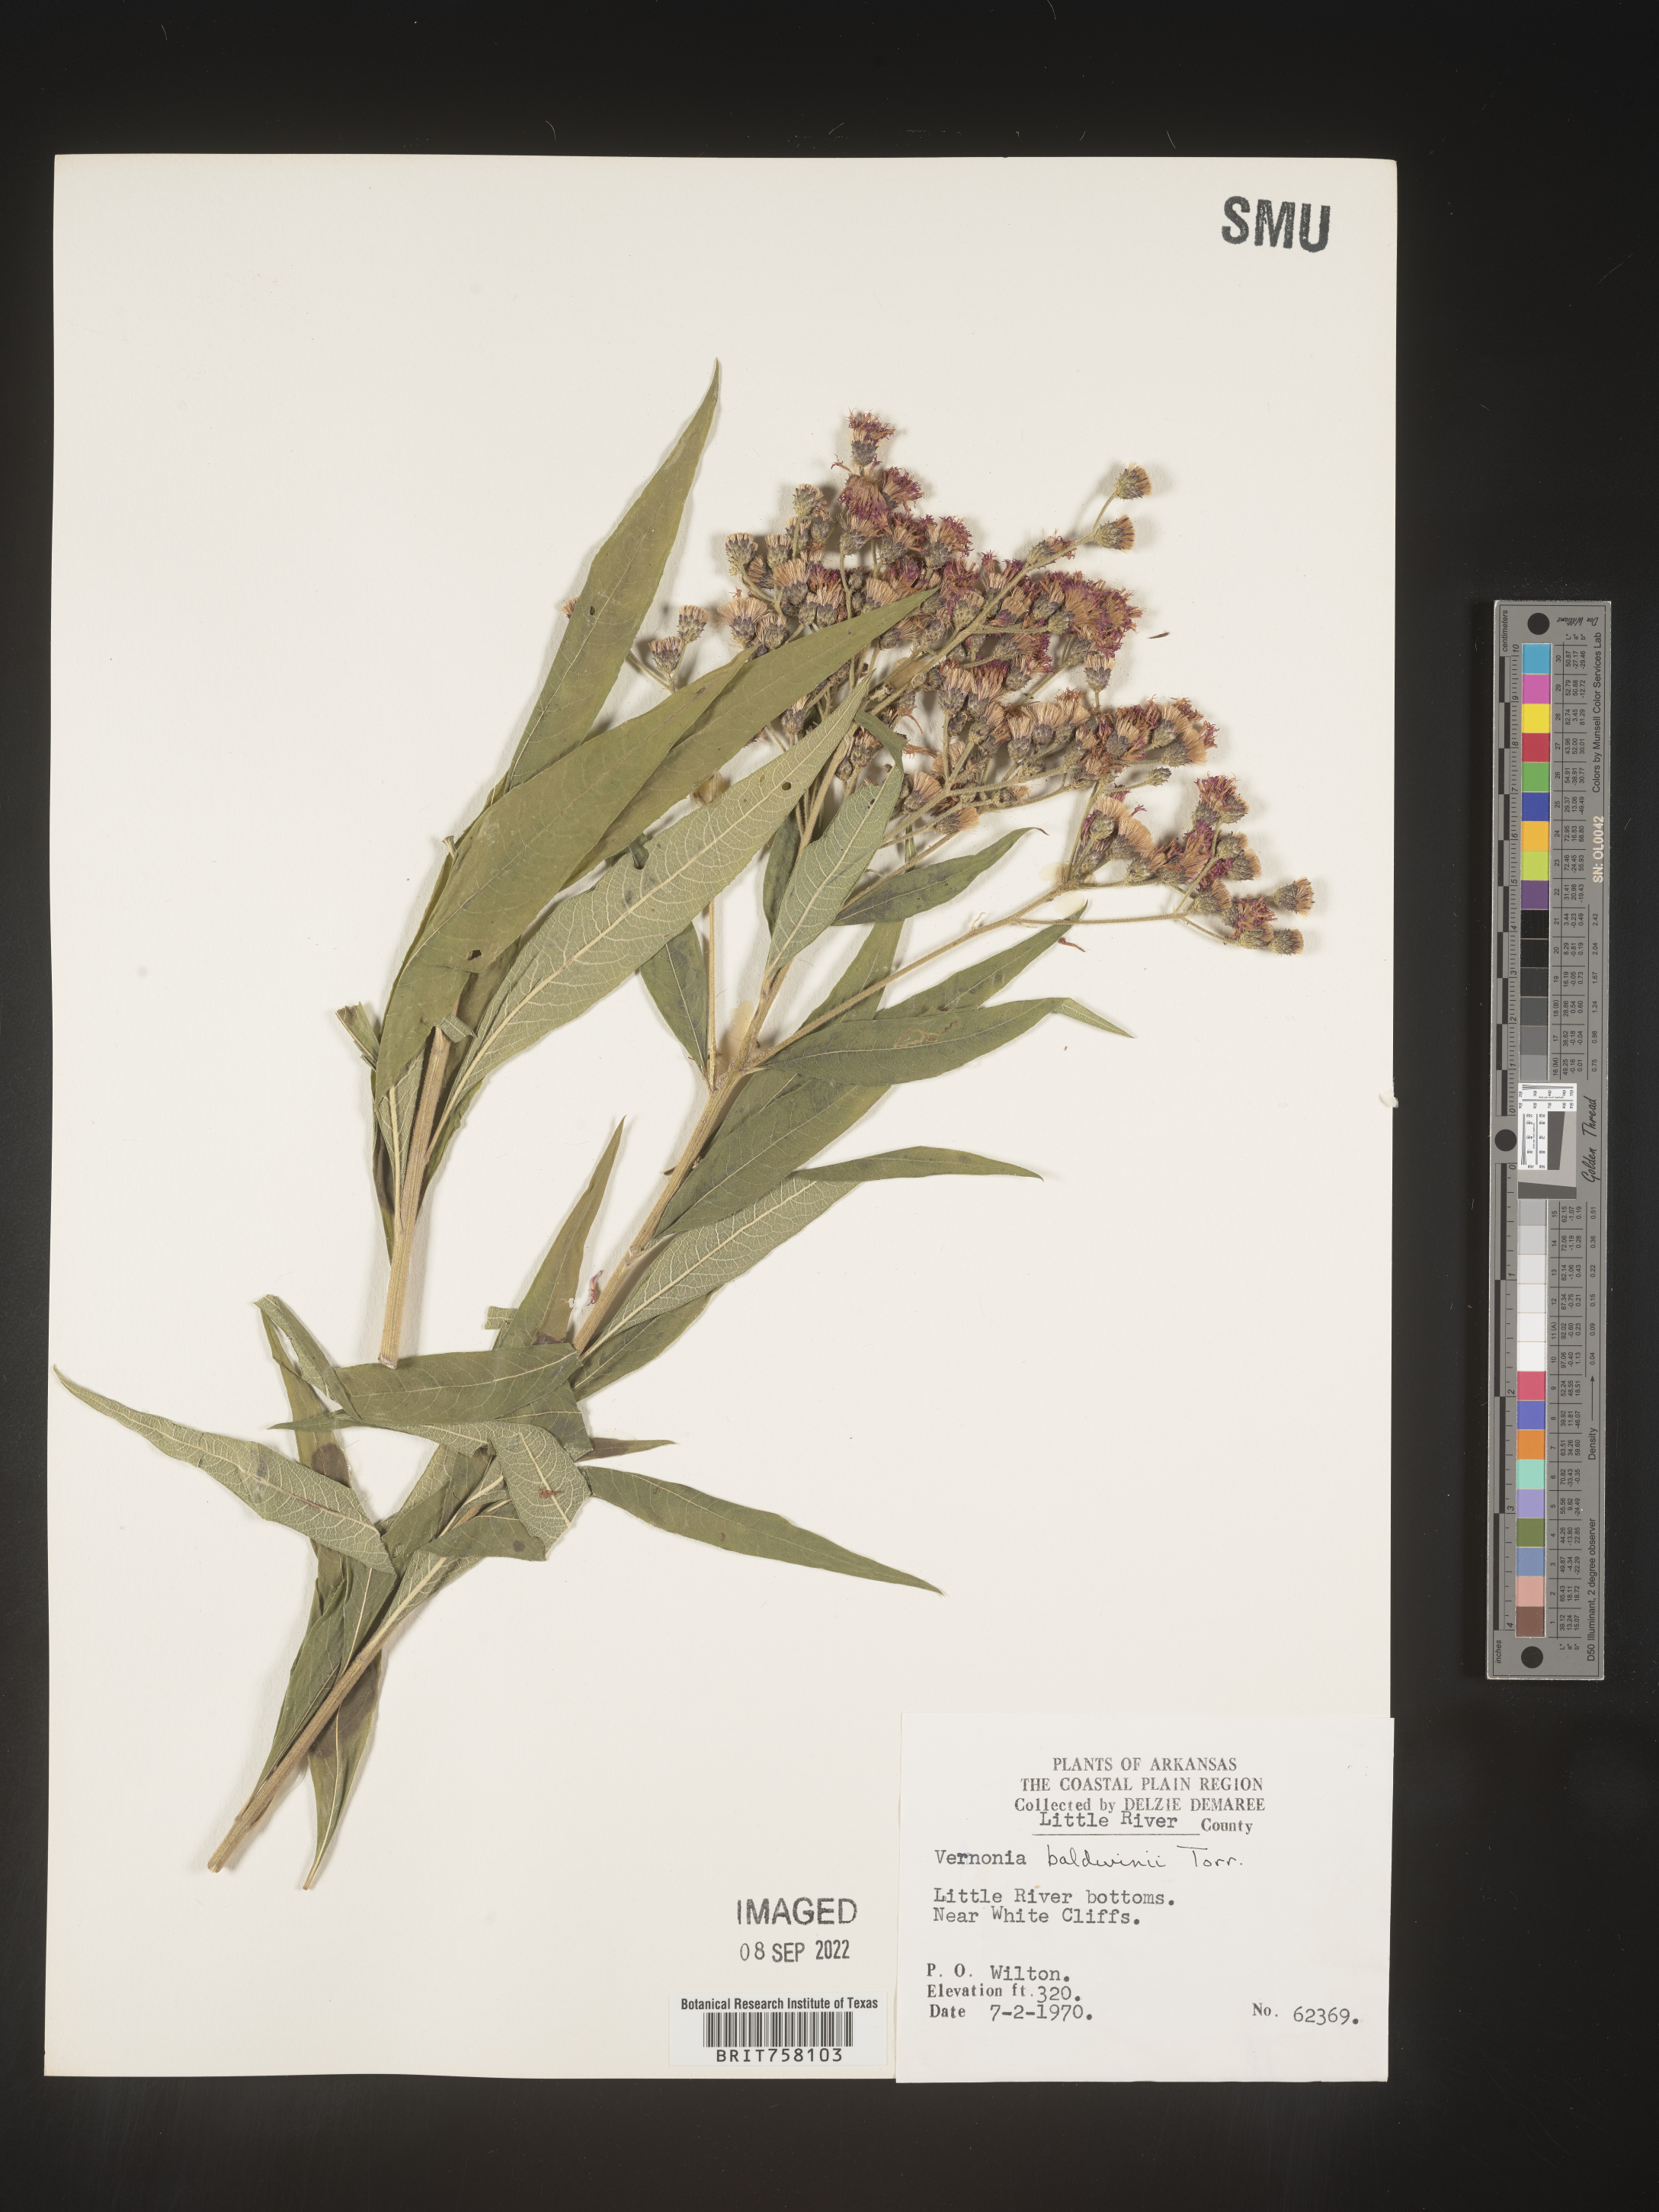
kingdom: Plantae
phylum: Tracheophyta
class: Magnoliopsida
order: Asterales
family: Asteraceae
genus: Vernonia
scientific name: Vernonia baldwinii
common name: Western ironweed
